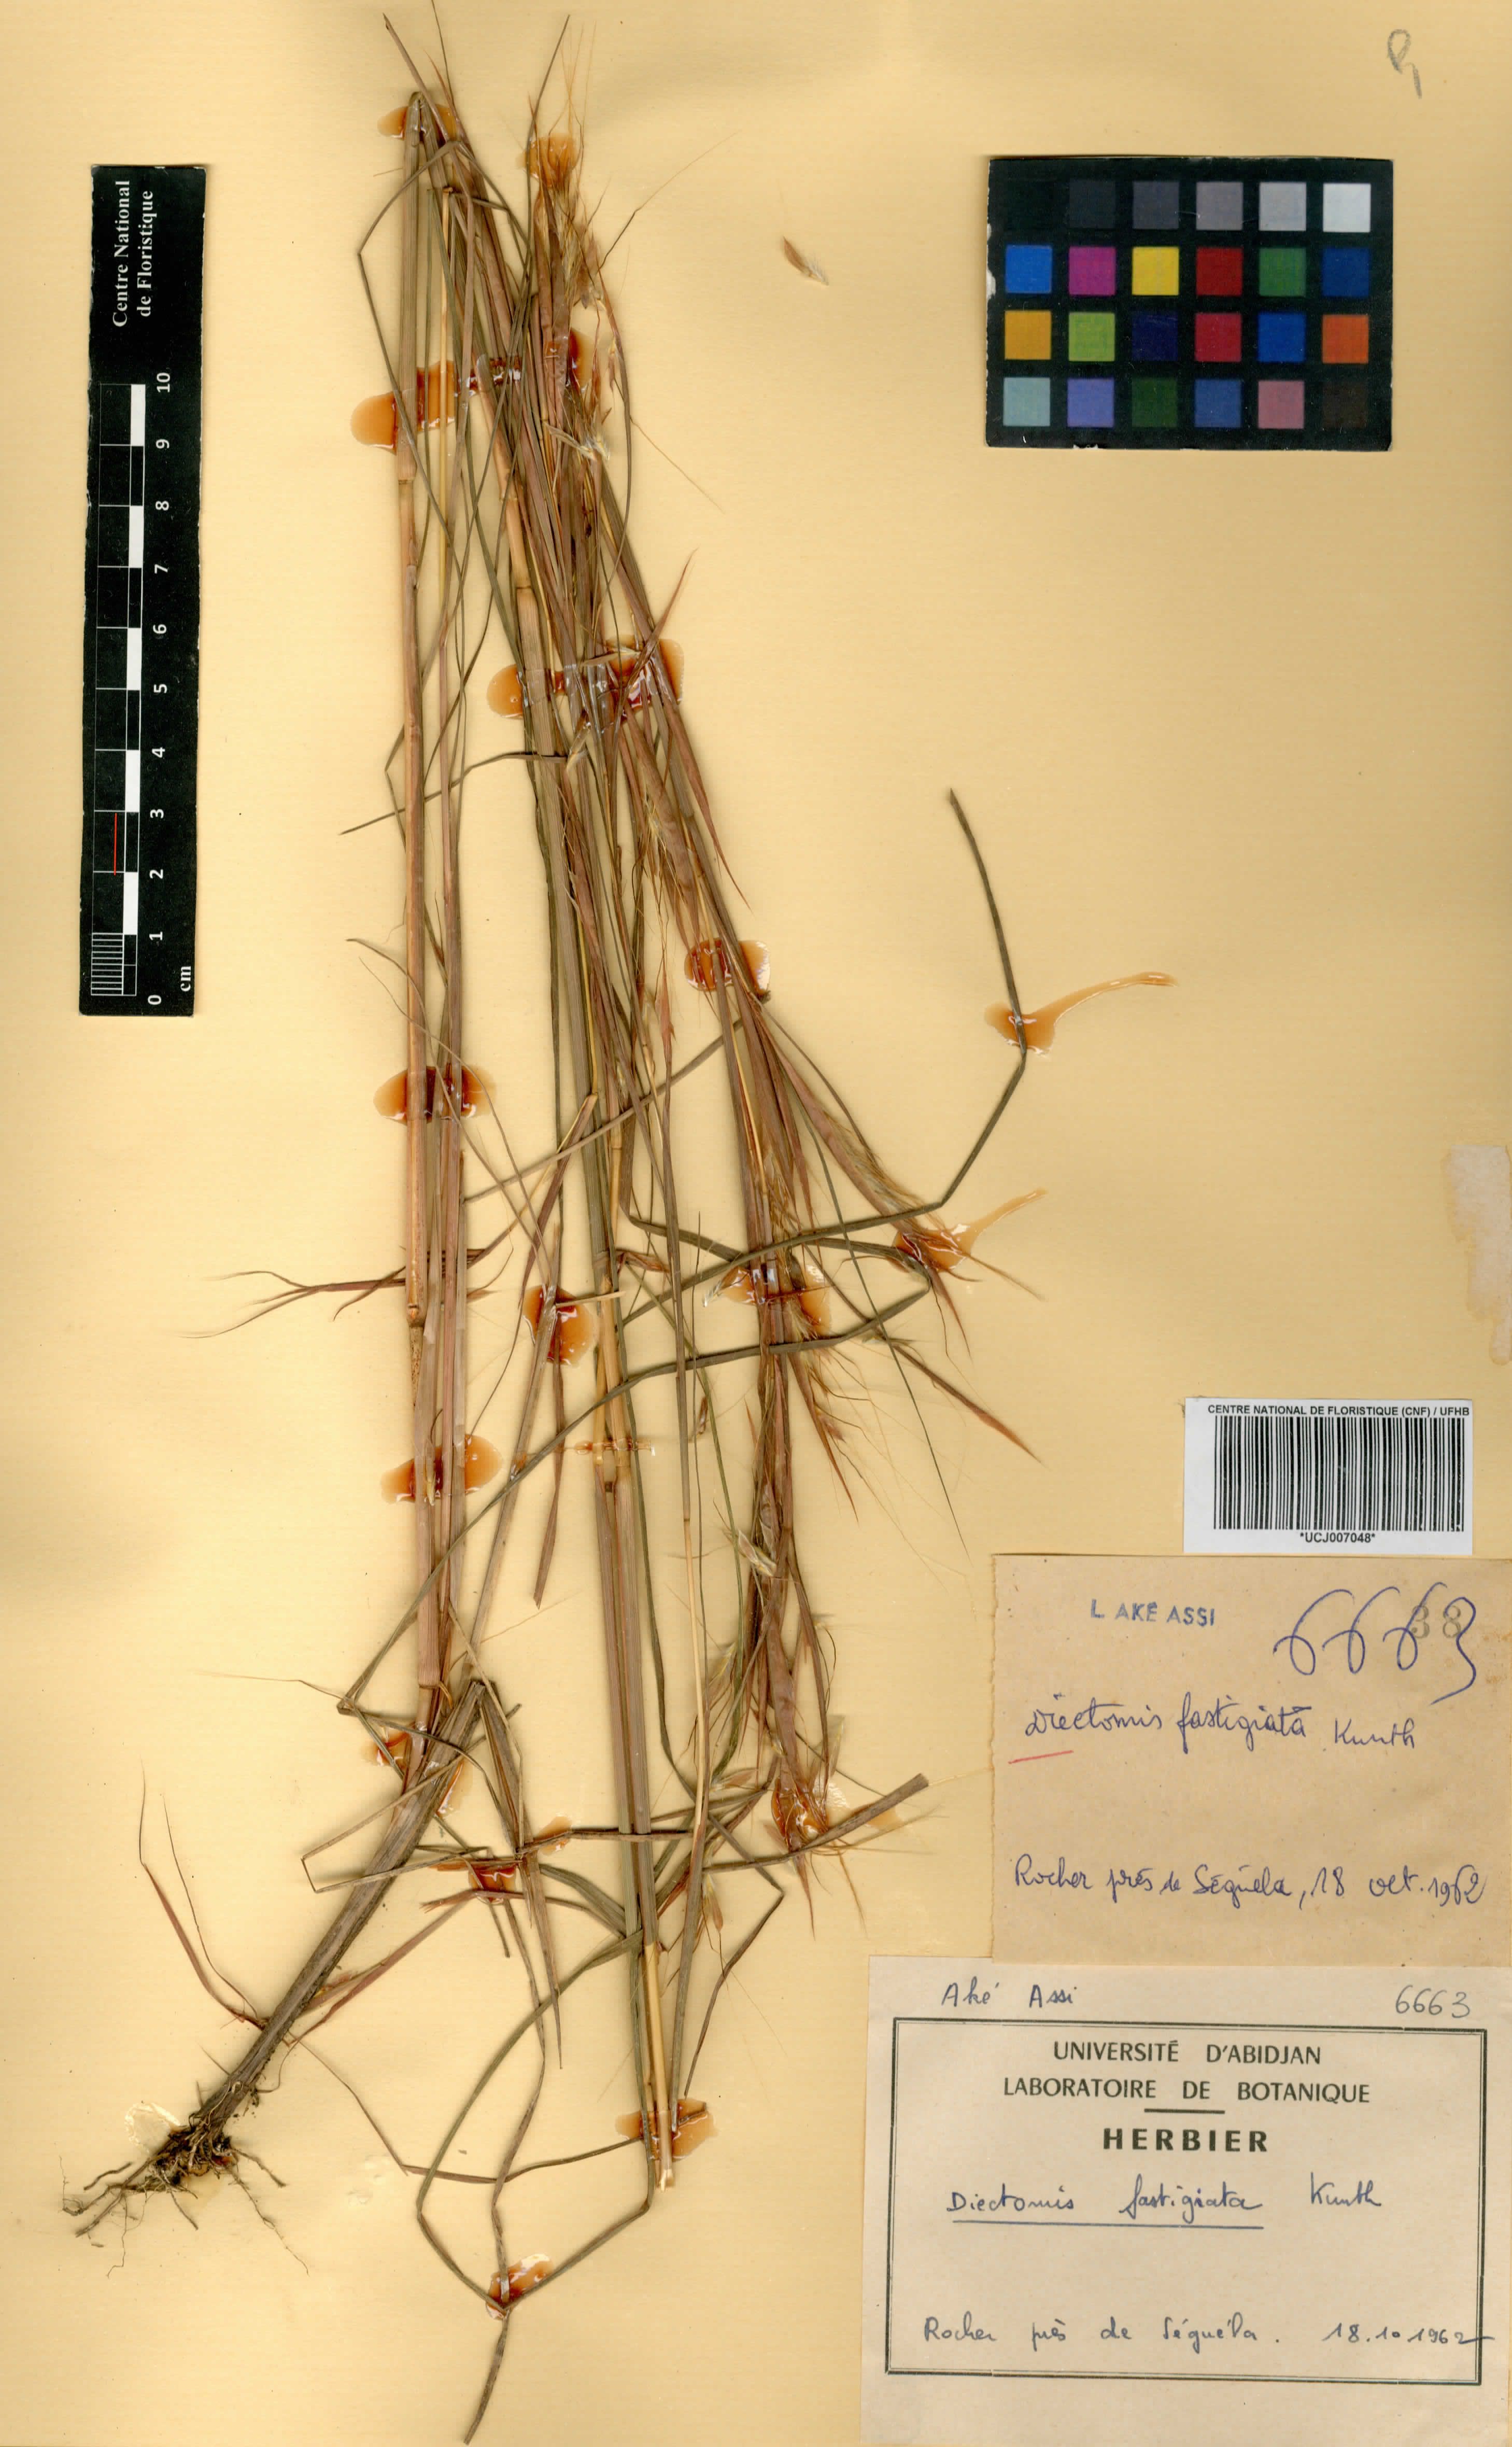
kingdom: Plantae
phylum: Tracheophyta
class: Liliopsida
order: Poales
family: Poaceae
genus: Diectomis
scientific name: Diectomis fastigiata
